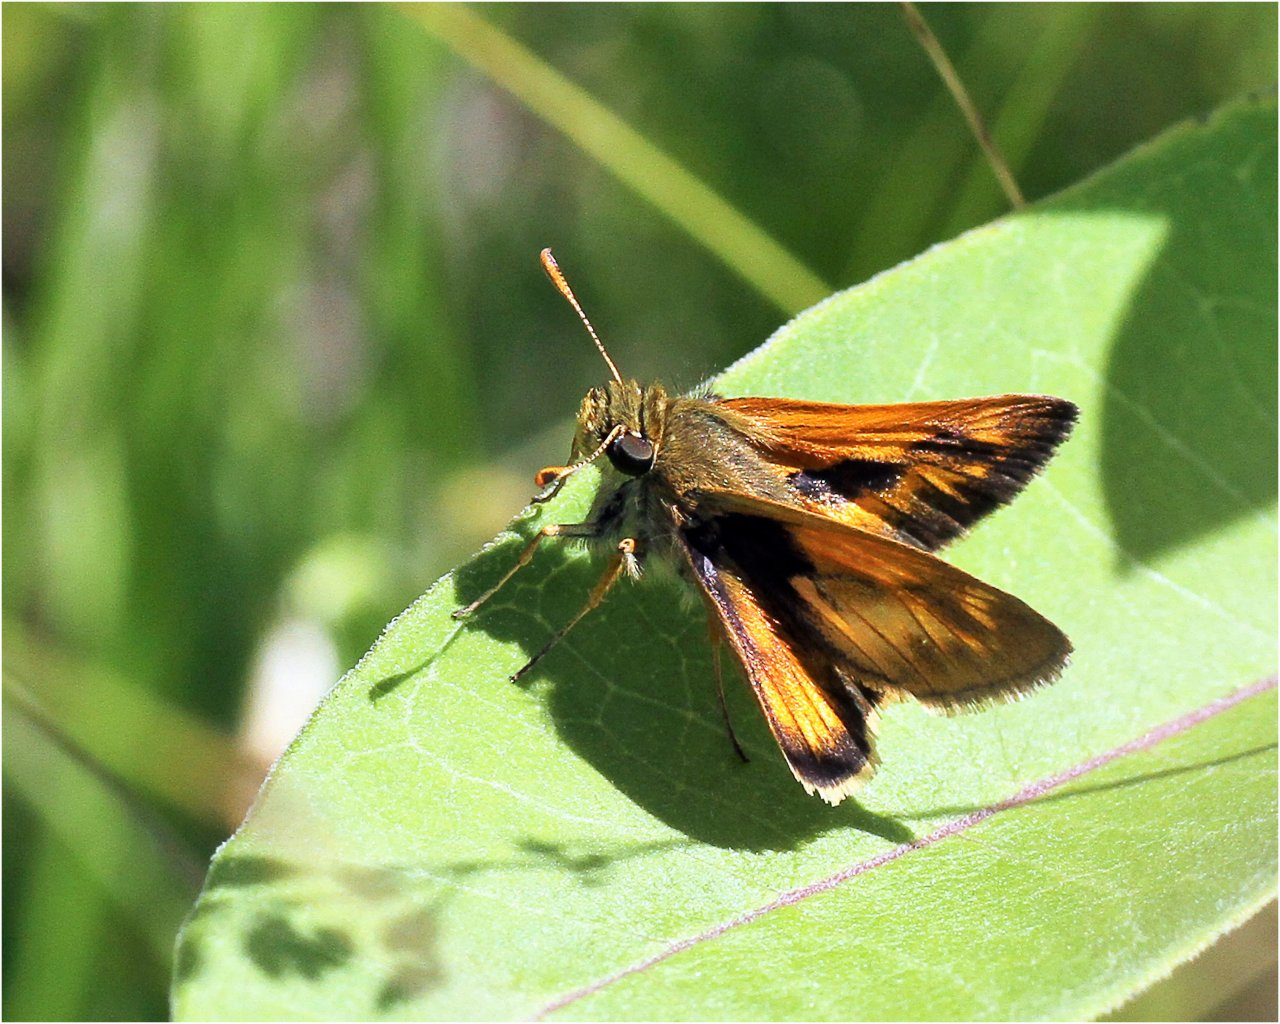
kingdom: Animalia
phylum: Arthropoda
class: Insecta
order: Lepidoptera
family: Hesperiidae
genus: Polites
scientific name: Polites
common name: Long Dash Skipper
